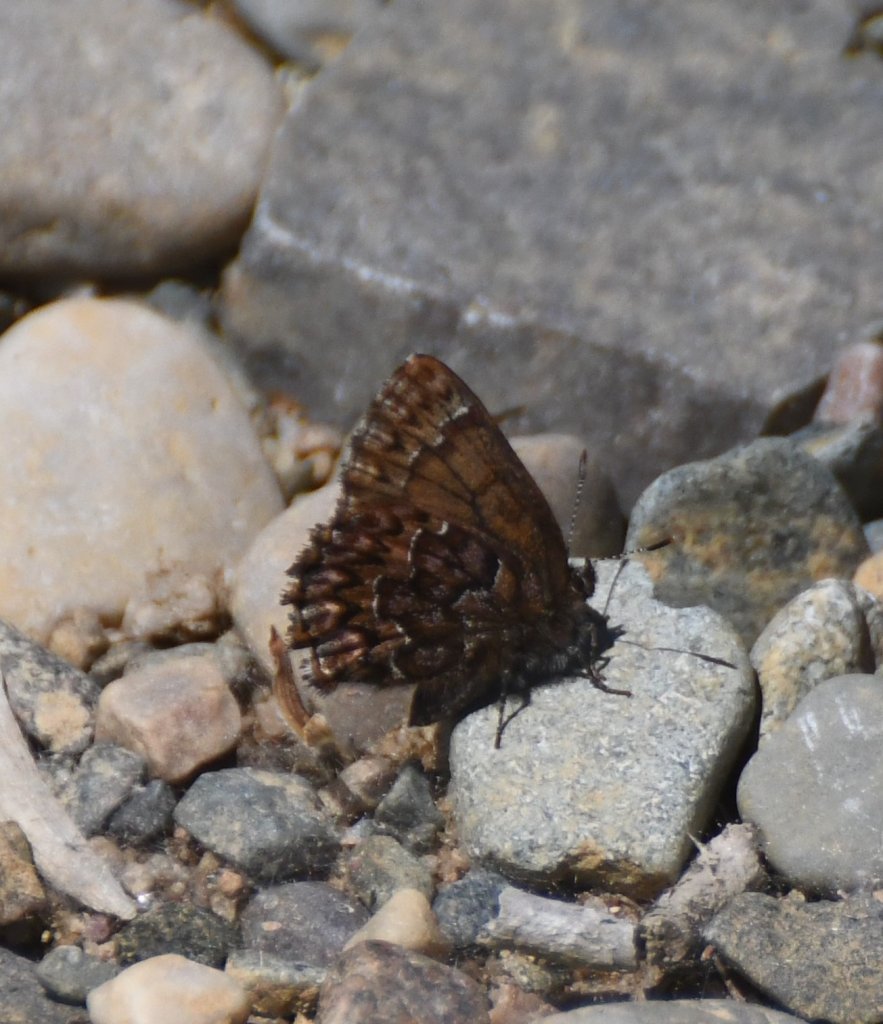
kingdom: Animalia
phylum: Arthropoda
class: Insecta
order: Lepidoptera
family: Lycaenidae
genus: Incisalia
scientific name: Incisalia eryphon
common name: Western Pine Elfin
